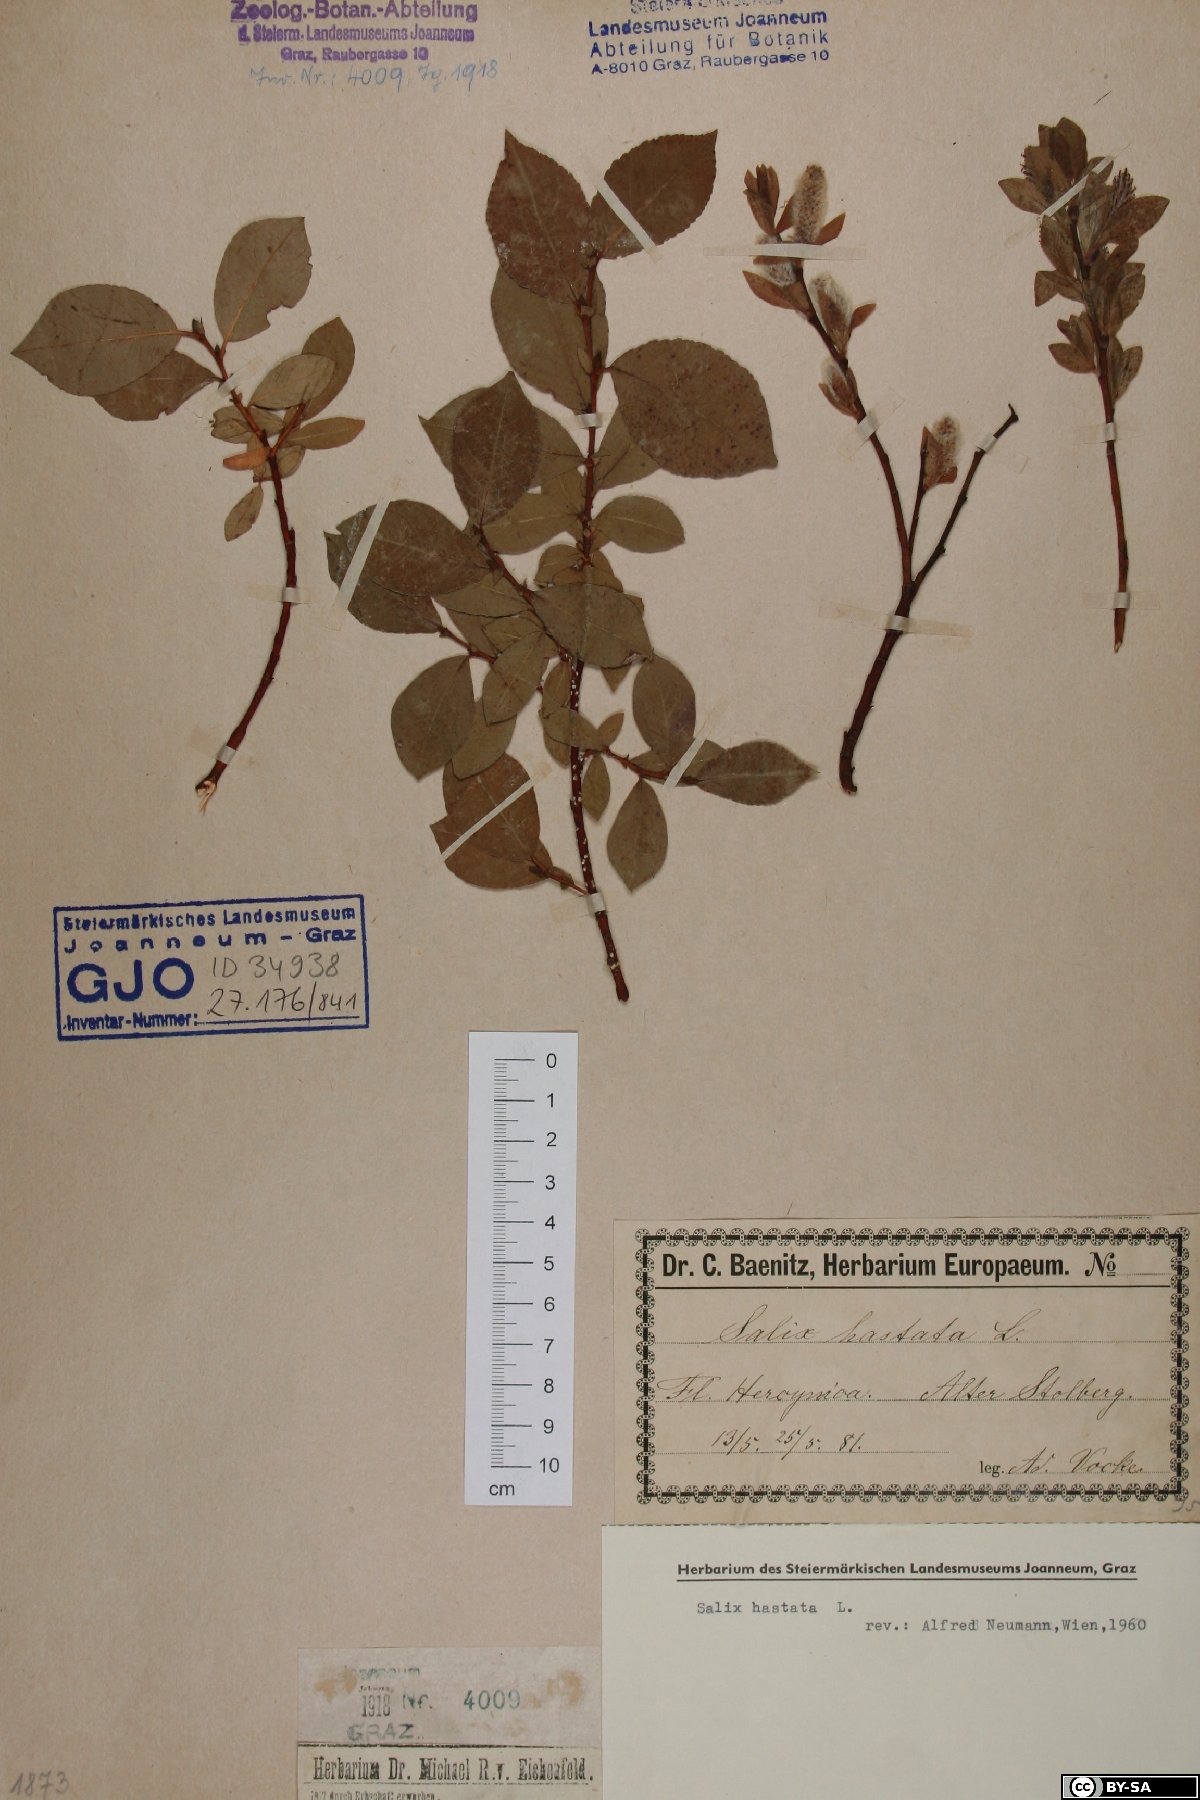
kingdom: Plantae
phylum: Tracheophyta
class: Magnoliopsida
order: Malpighiales
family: Salicaceae
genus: Salix
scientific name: Salix hastata
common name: Halberd willow
